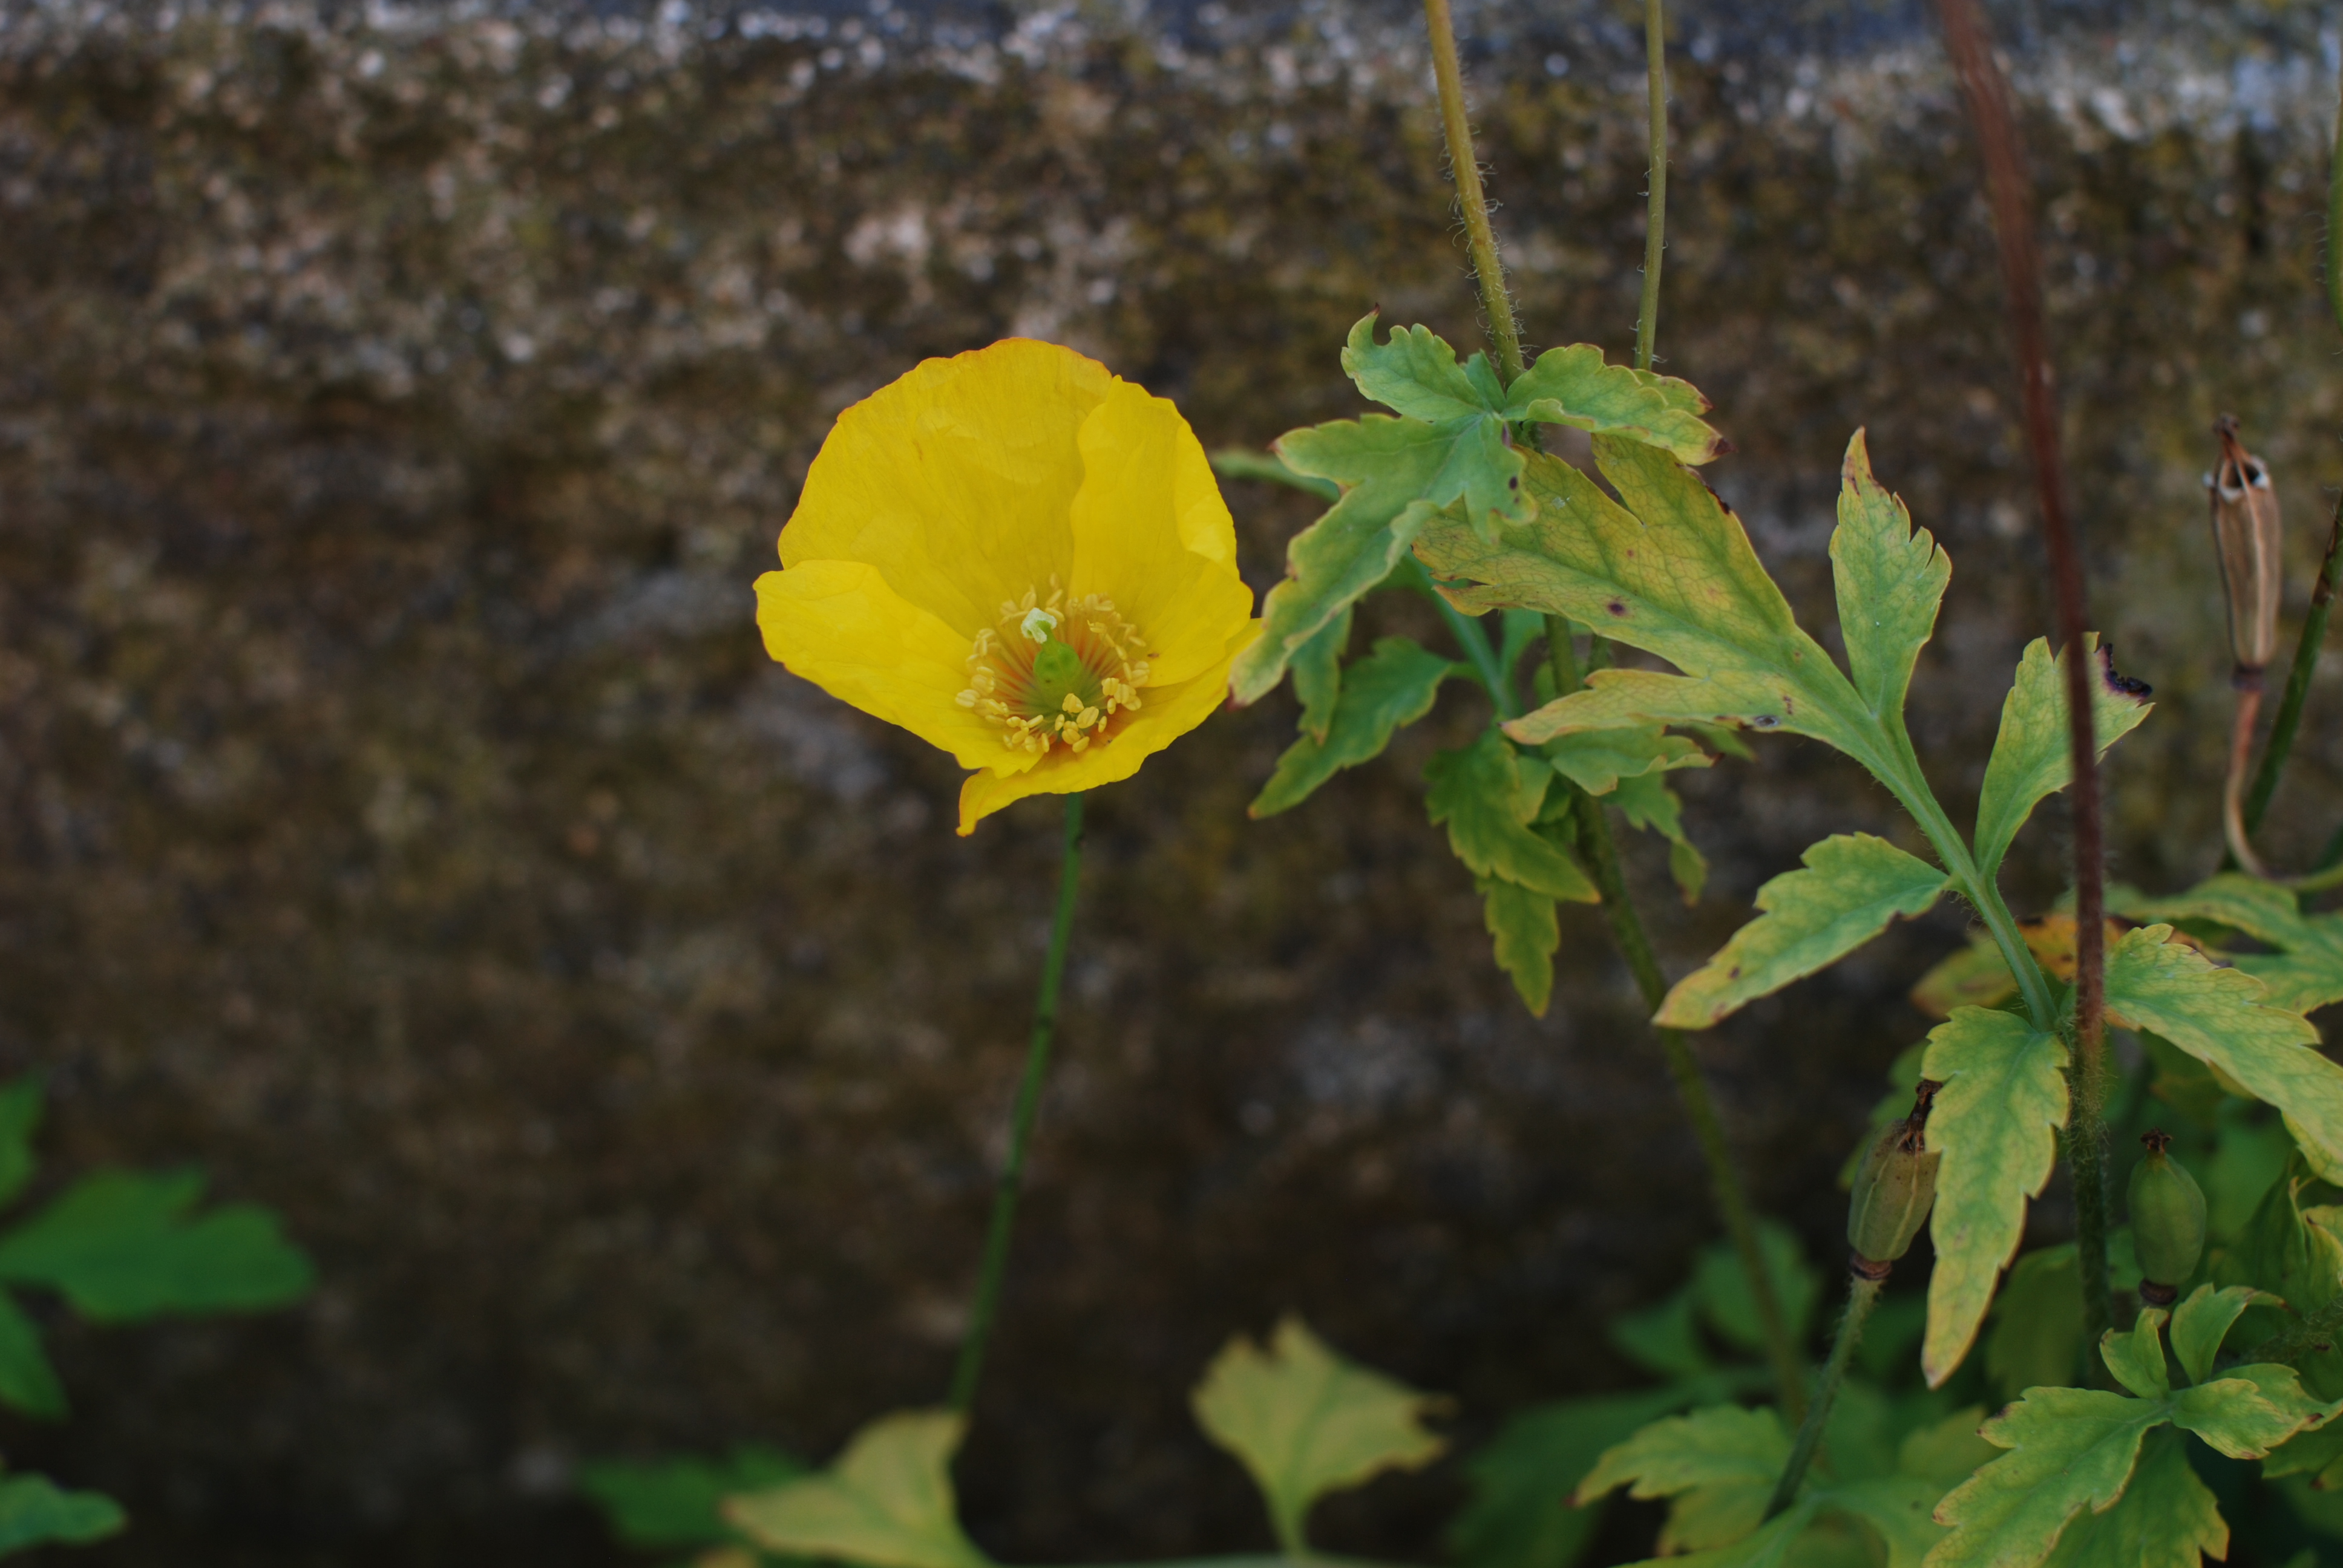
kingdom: Plantae
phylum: Tracheophyta
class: Magnoliopsida
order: Ranunculales
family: Papaveraceae
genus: Papaver
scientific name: Papaver cambricum
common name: Poppy
